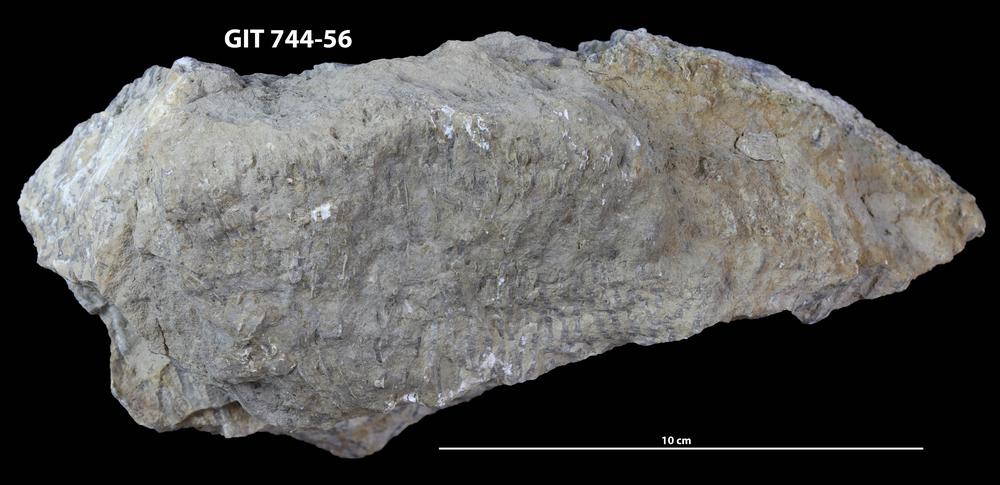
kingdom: Animalia
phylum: Cnidaria
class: Anthozoa
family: Halysitidae
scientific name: Halysitidae
